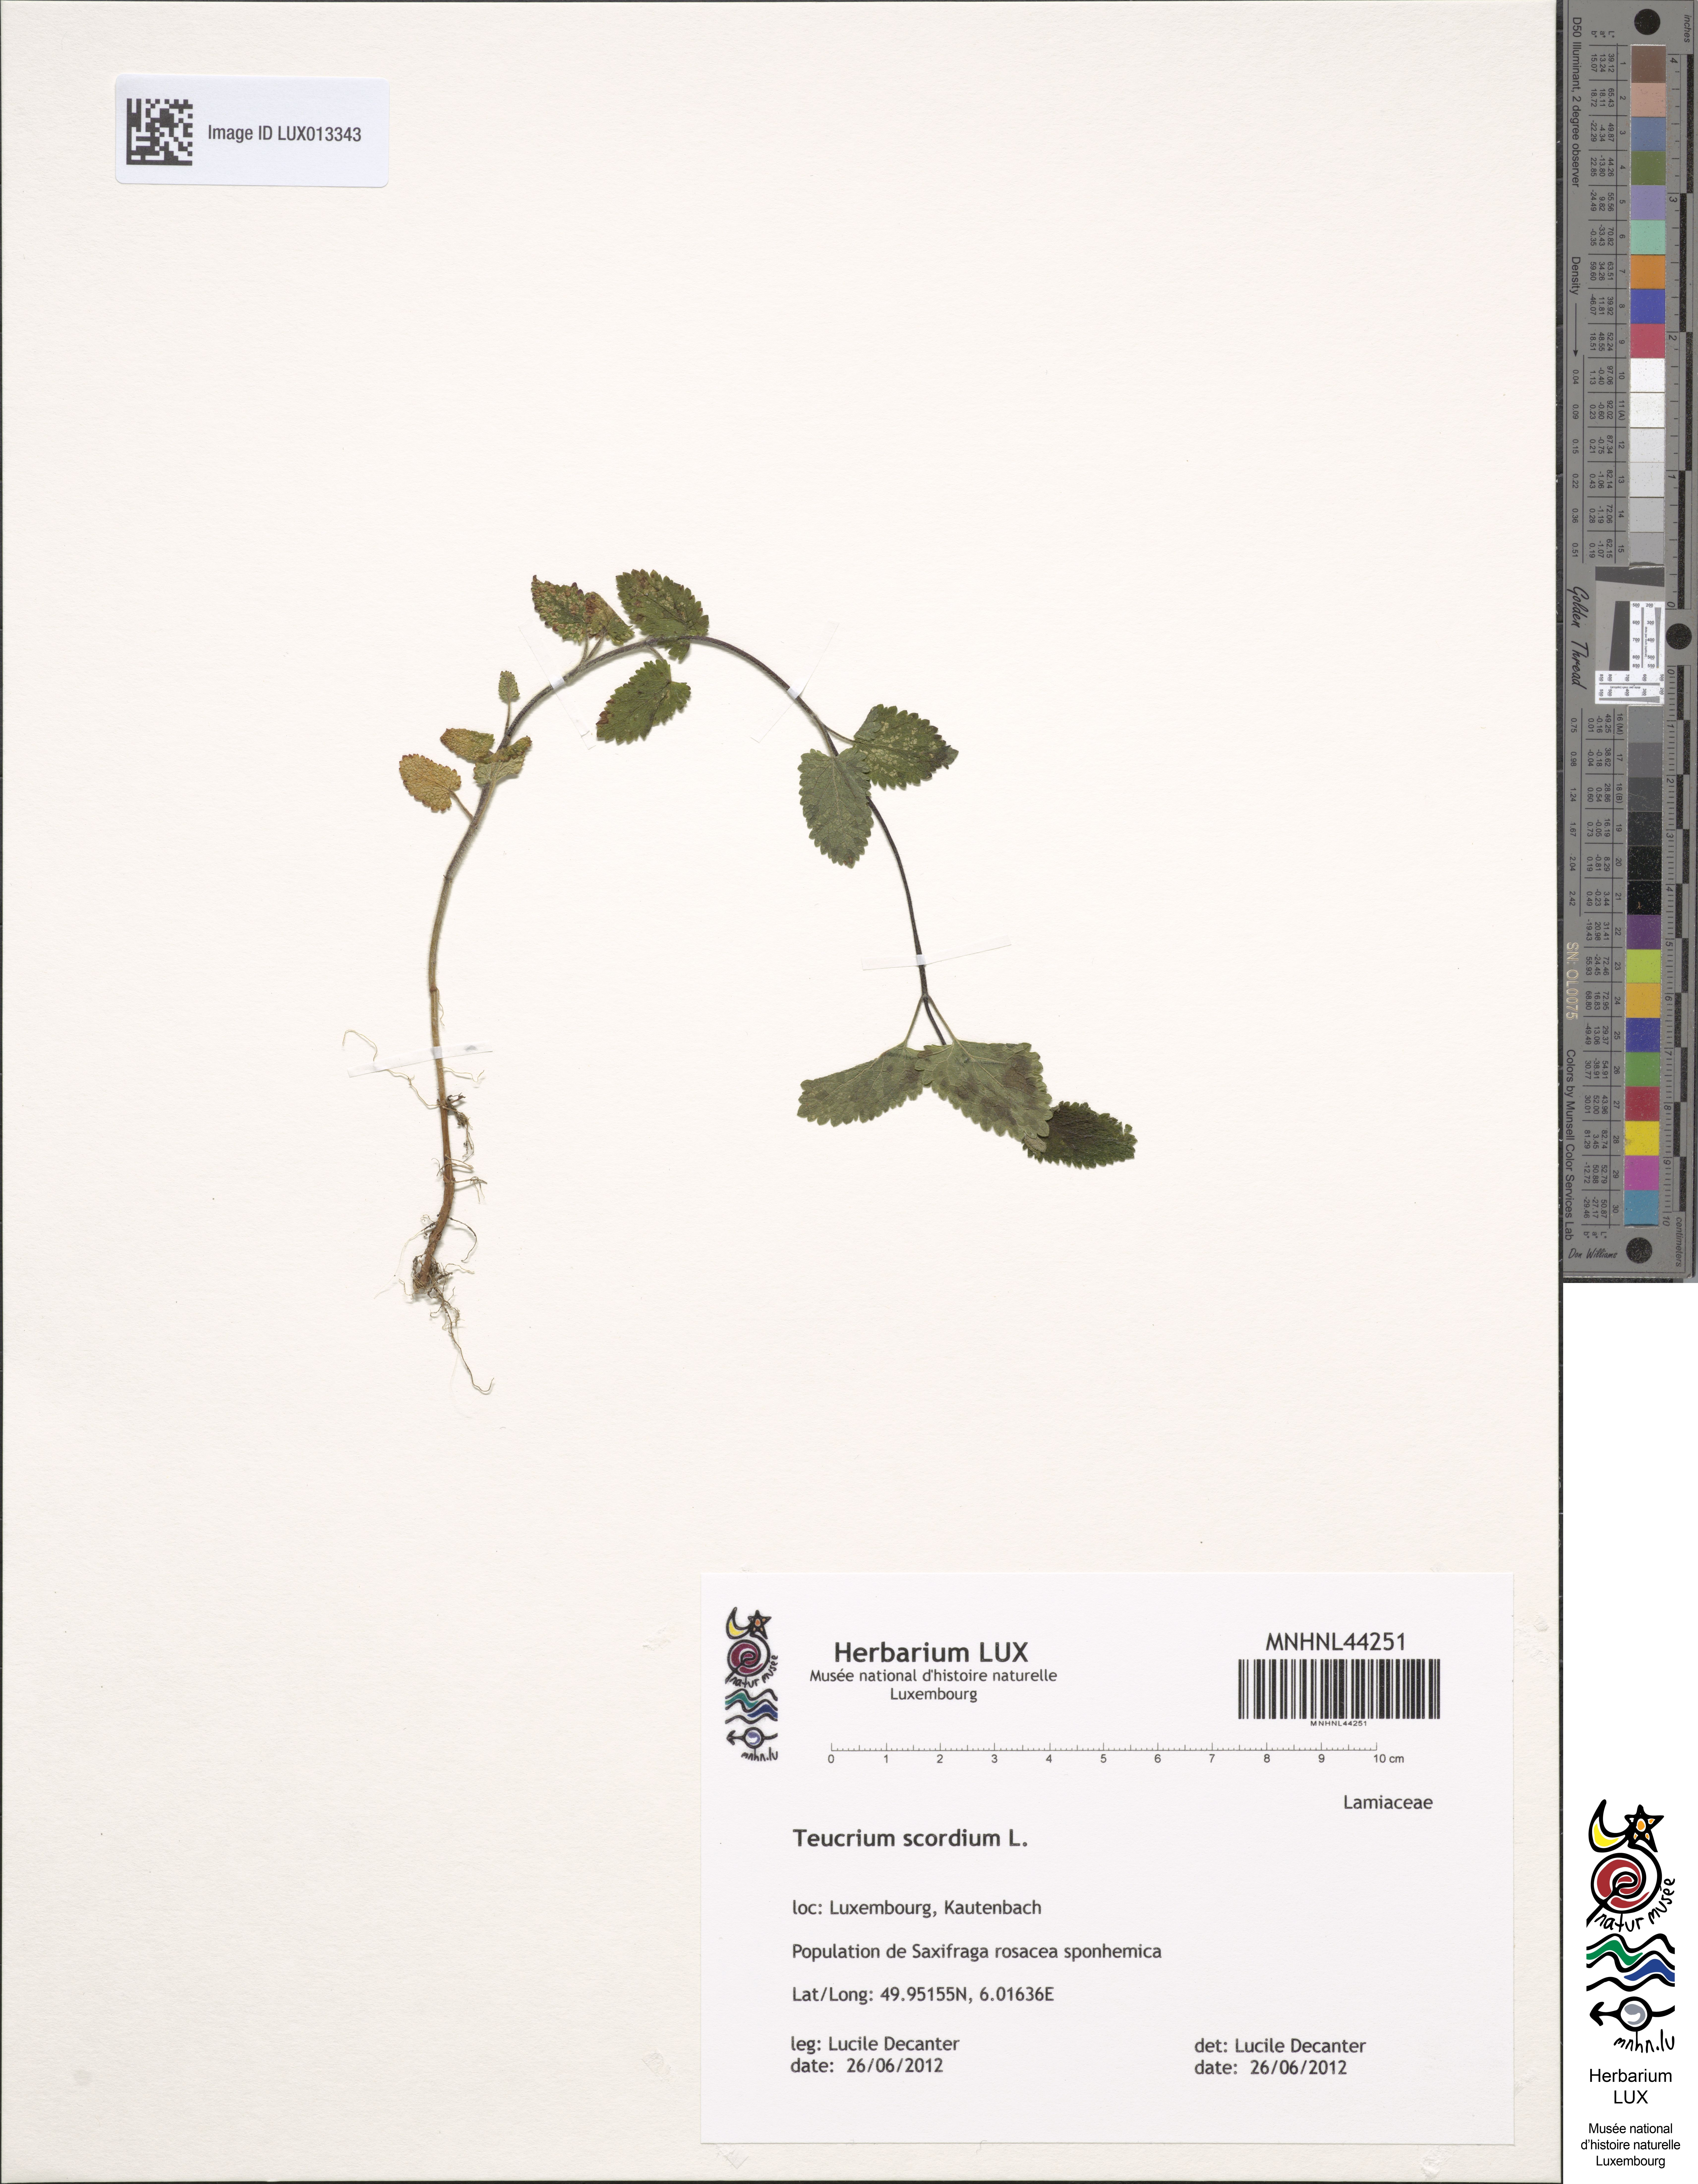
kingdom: Plantae
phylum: Tracheophyta
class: Magnoliopsida
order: Lamiales
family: Lamiaceae
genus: Teucrium
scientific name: Teucrium scorodonia
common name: Woodland germander
